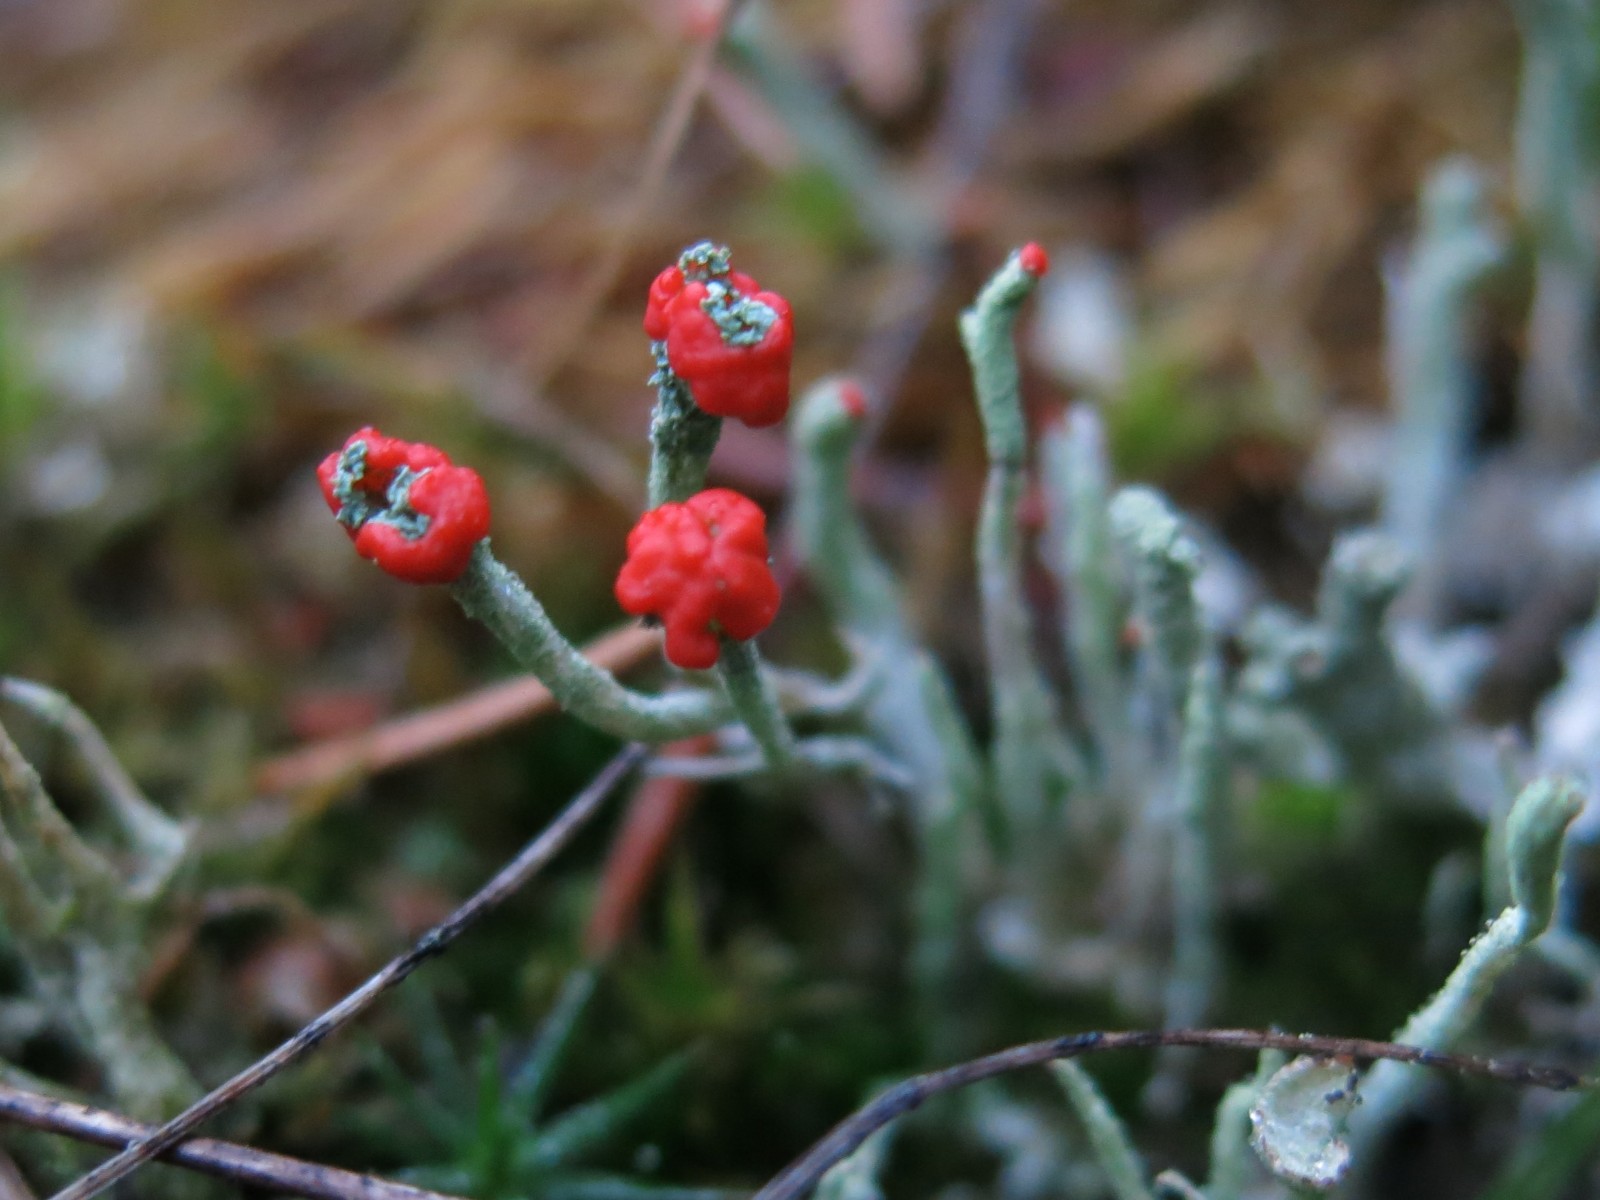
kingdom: Fungi
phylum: Ascomycota
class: Lecanoromycetes
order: Lecanorales
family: Cladoniaceae
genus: Cladonia
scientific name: Cladonia floerkeana
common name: lakrød bægerlav
